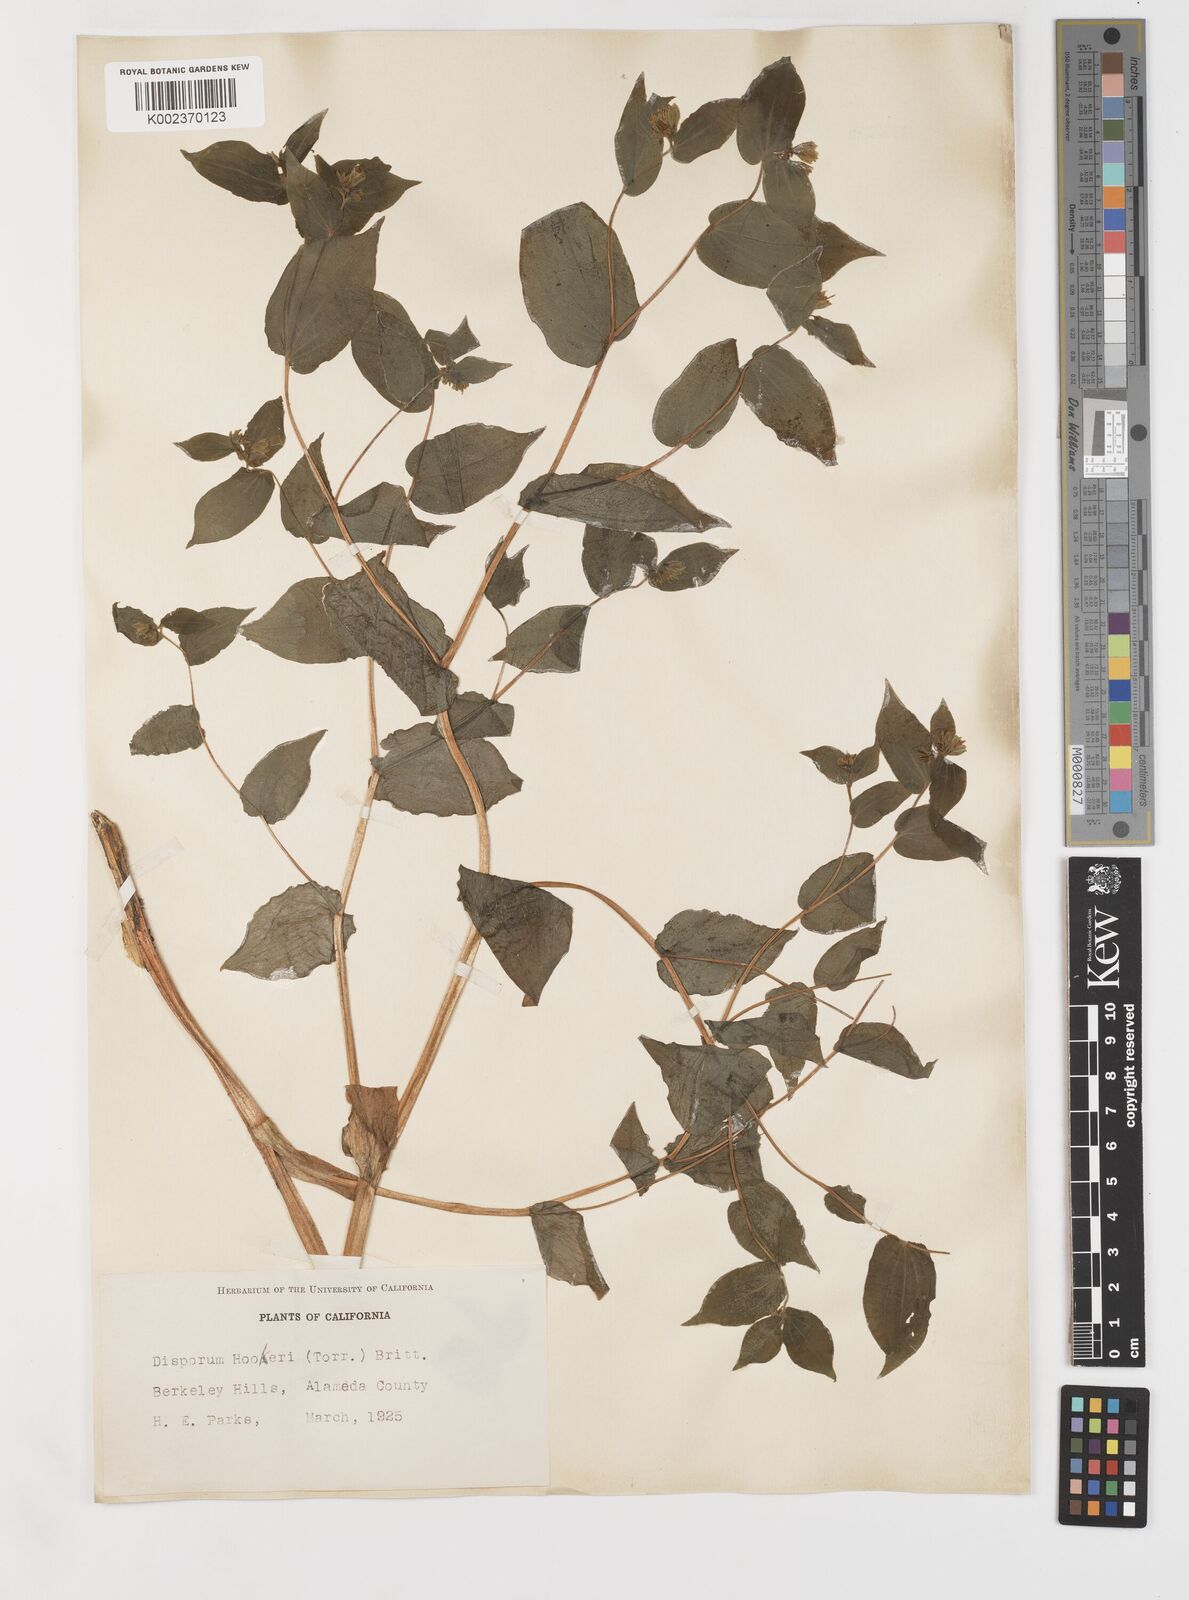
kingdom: Plantae
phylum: Tracheophyta
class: Liliopsida
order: Liliales
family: Liliaceae
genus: Prosartes
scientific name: Prosartes hookeri
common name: Fairy-bells
